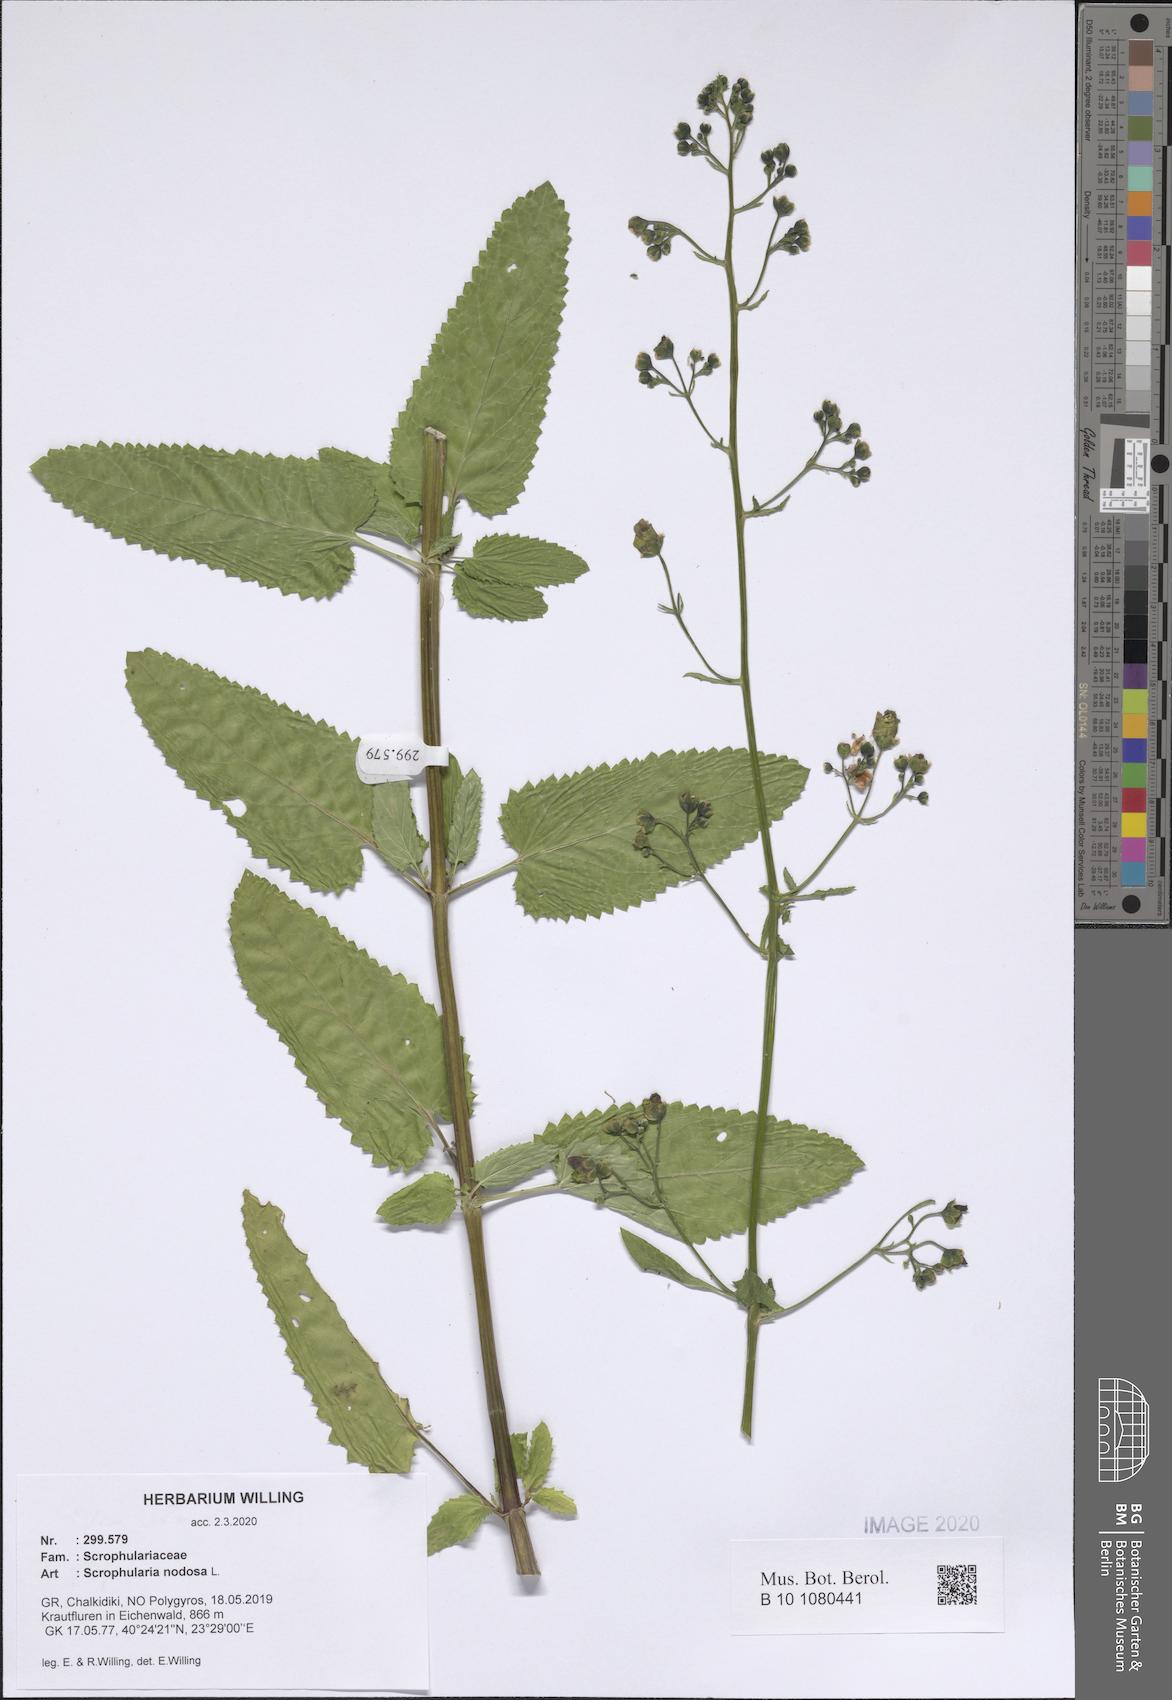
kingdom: Plantae
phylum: Tracheophyta
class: Magnoliopsida
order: Lamiales
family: Scrophulariaceae
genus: Scrophularia
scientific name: Scrophularia nodosa
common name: Common figwort
